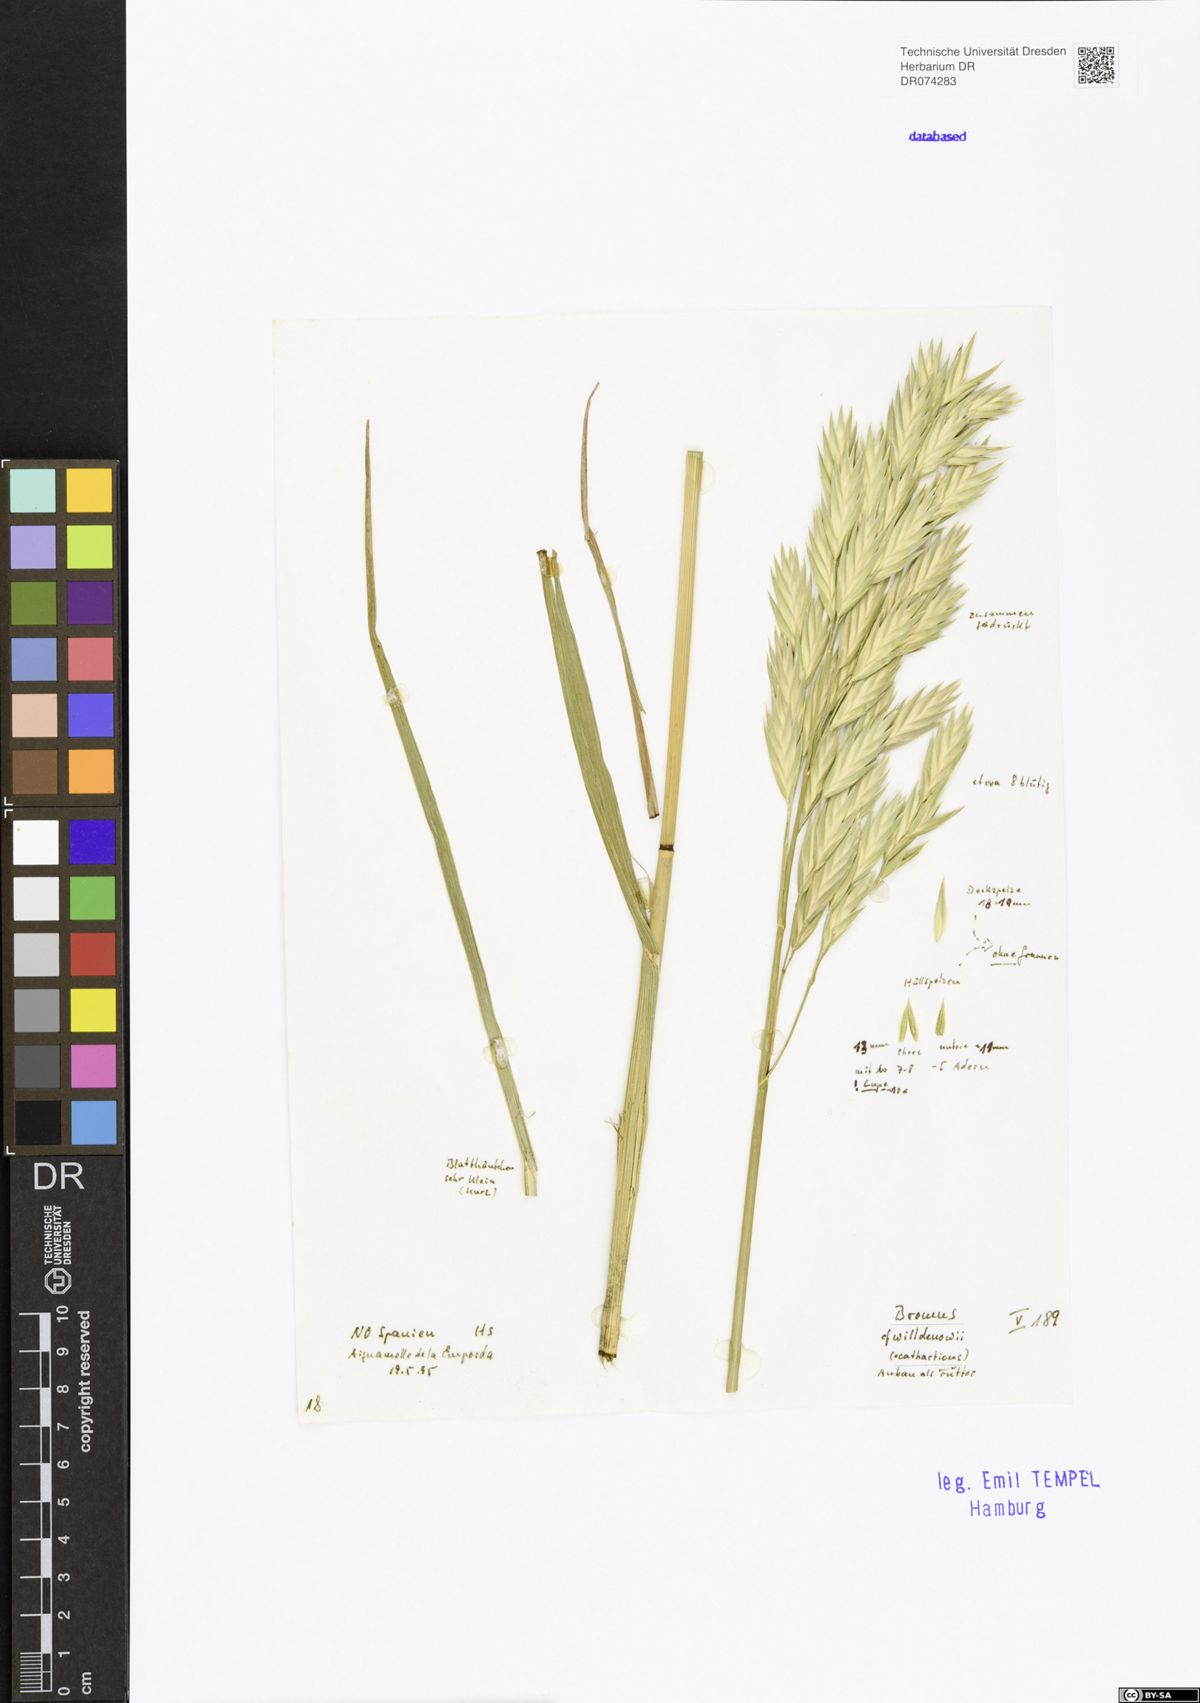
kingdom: Plantae
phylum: Tracheophyta
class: Liliopsida
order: Poales
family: Poaceae
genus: Bromus
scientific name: Bromus catharticus
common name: Rescuegrass
